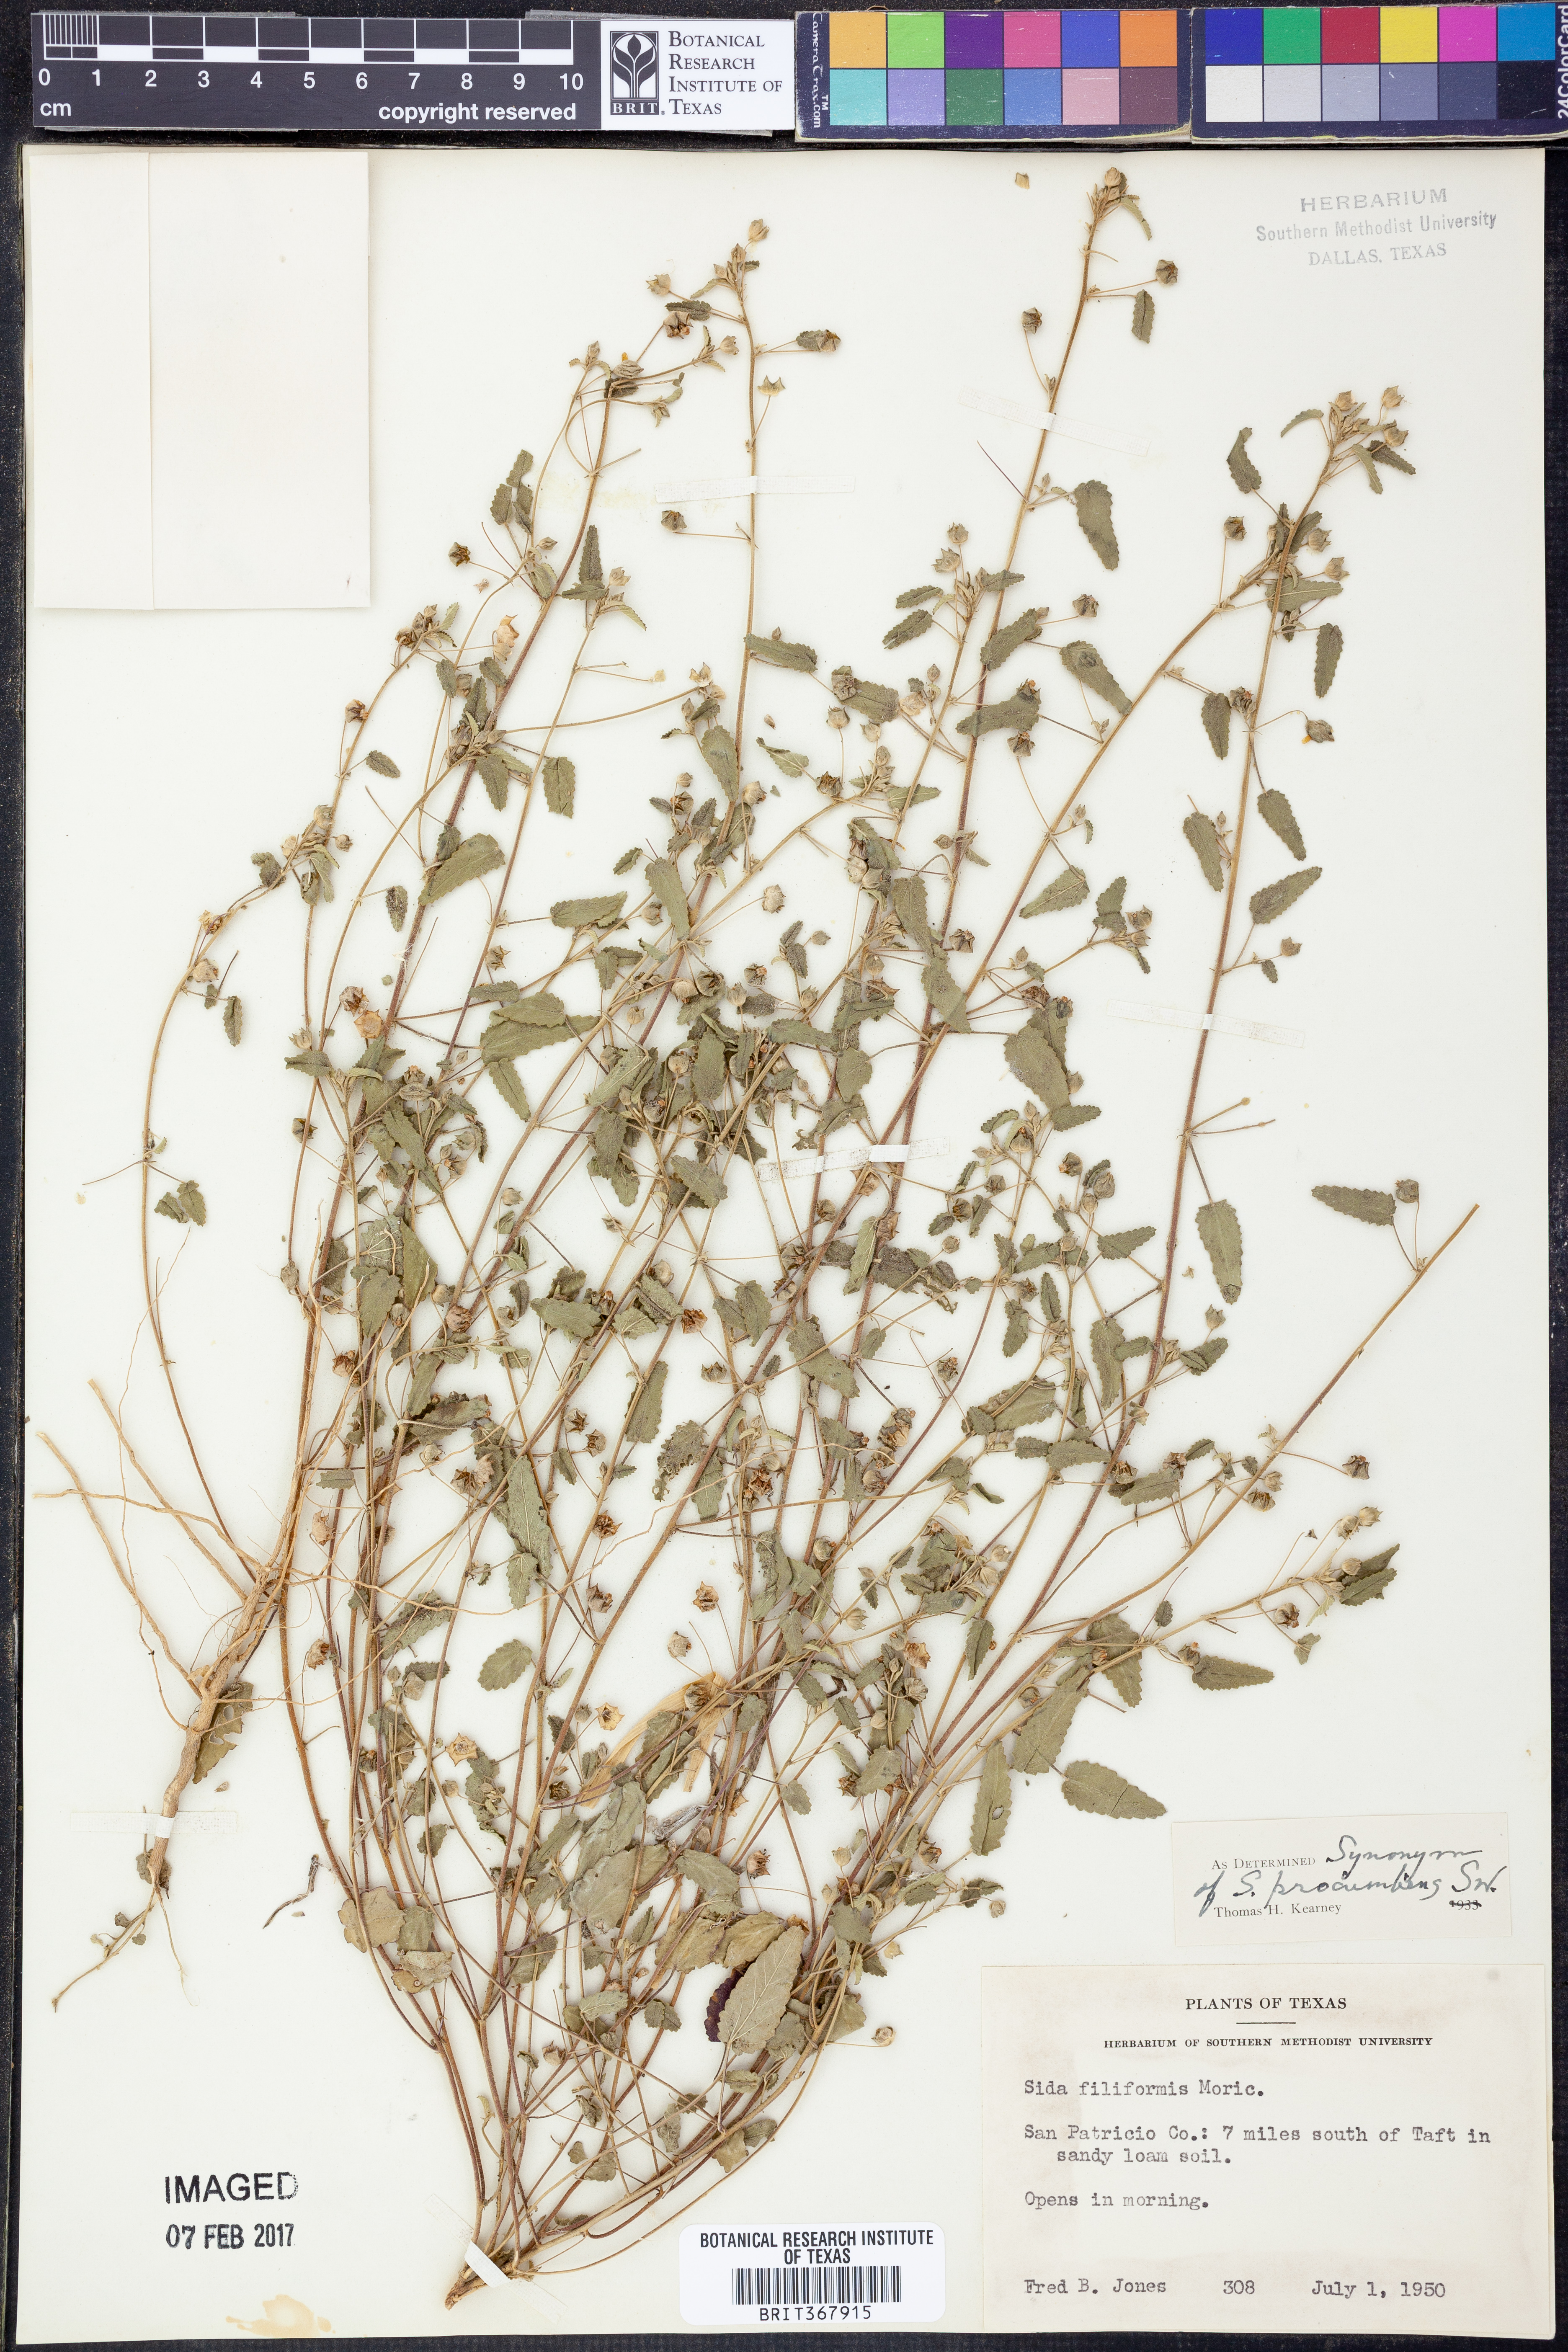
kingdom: Plantae
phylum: Tracheophyta
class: Magnoliopsida
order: Malvales
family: Malvaceae
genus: Sida
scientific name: Sida abutilifolia
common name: Spreading fanpetals
